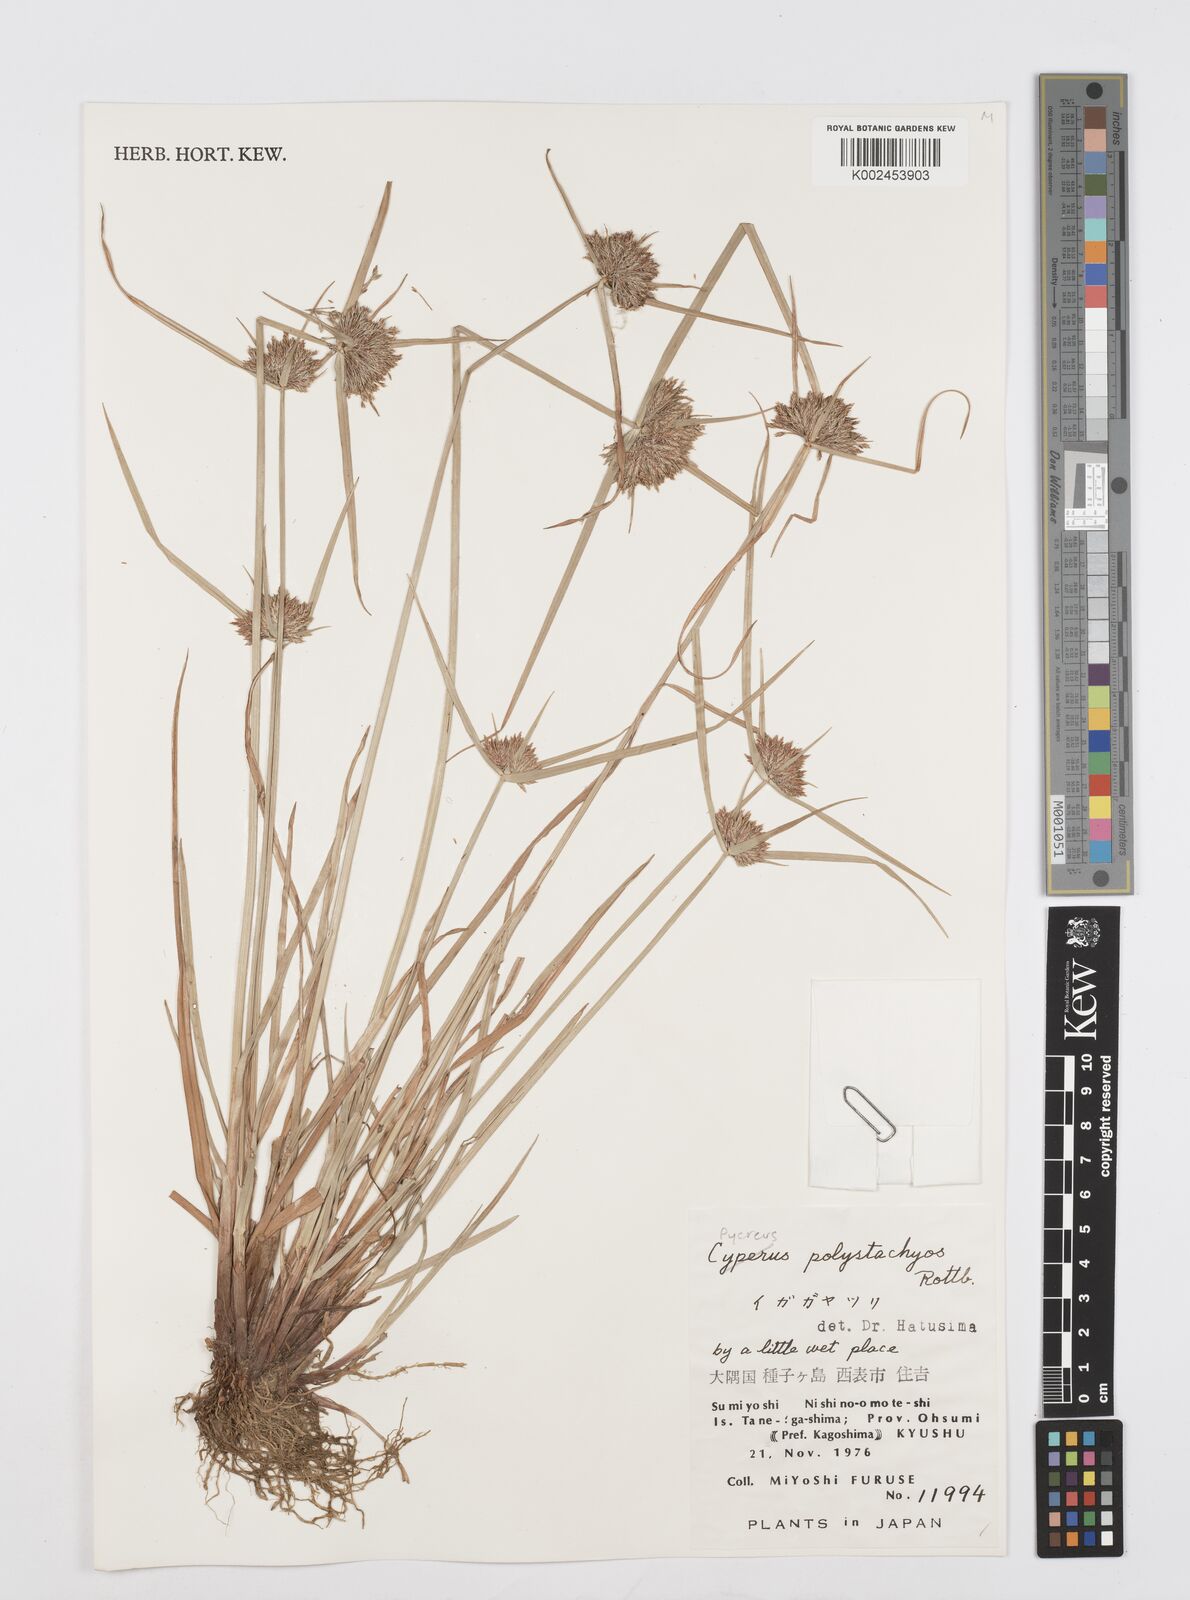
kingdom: Plantae
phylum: Tracheophyta
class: Liliopsida
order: Poales
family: Cyperaceae
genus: Cyperus
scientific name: Cyperus polystachyos
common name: Bunchy flat sedge
